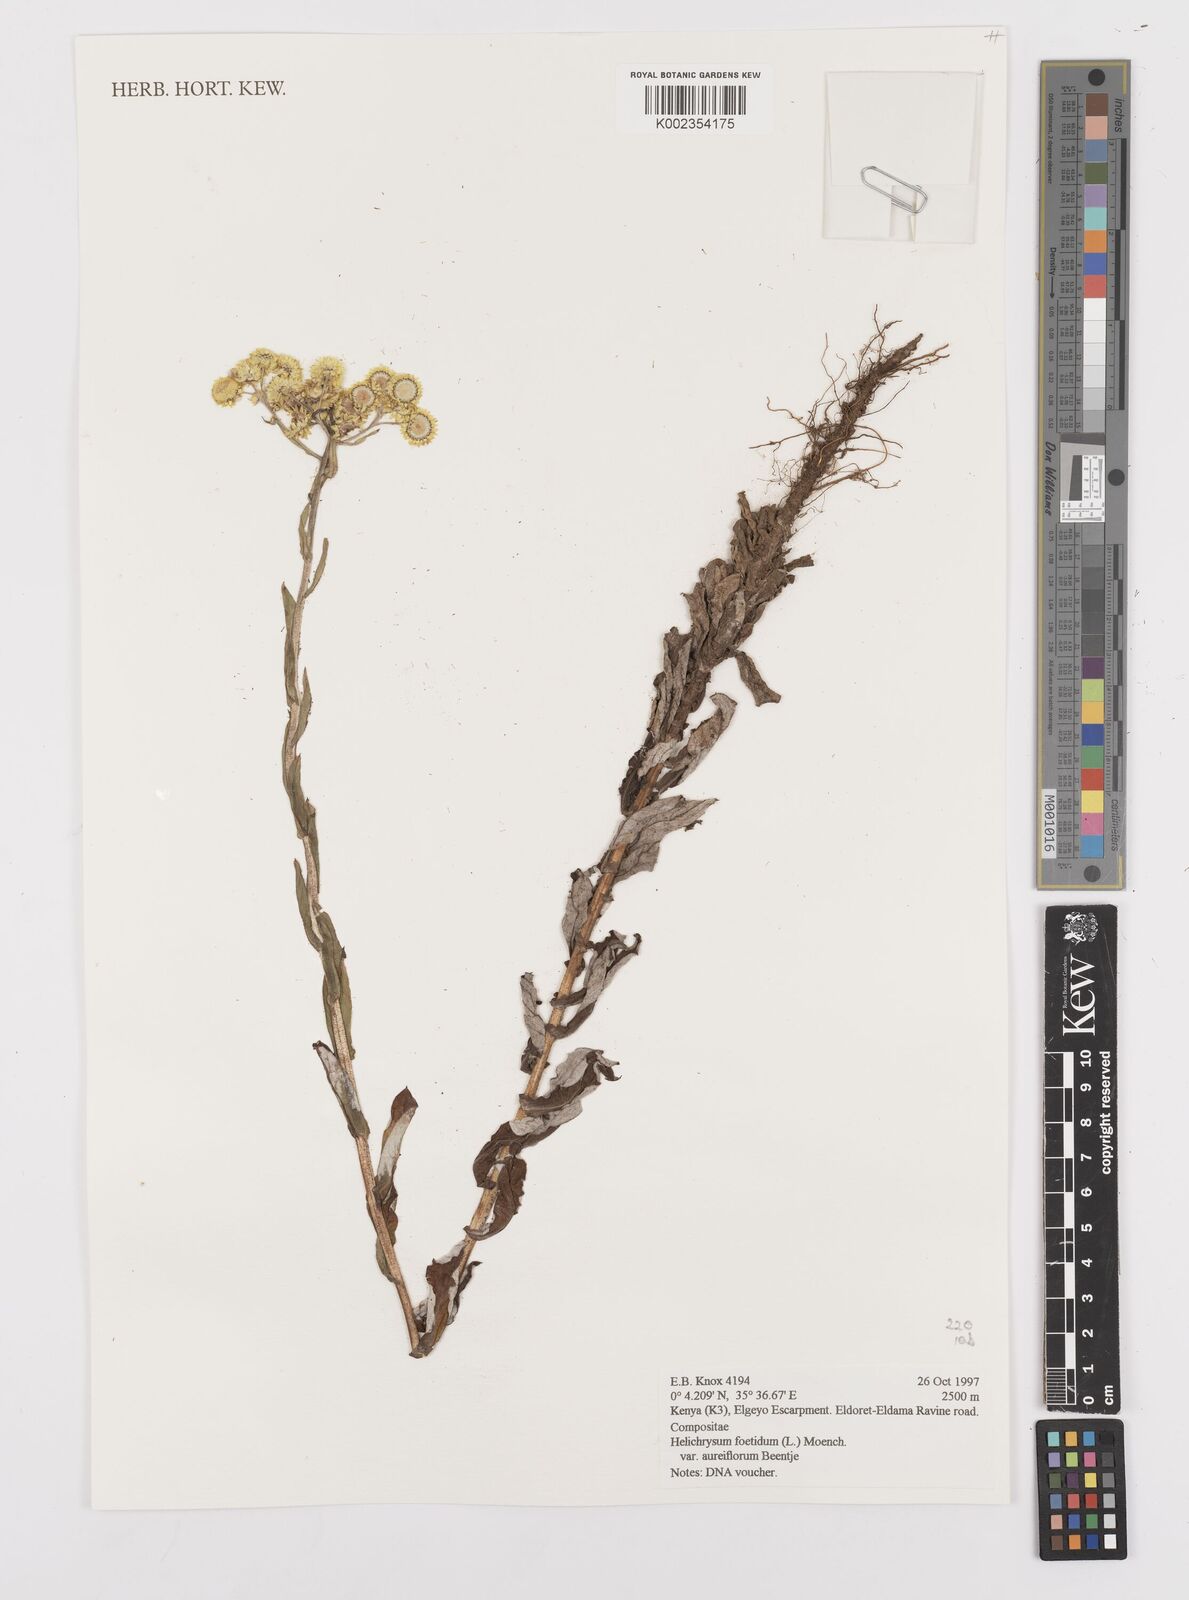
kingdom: Plantae
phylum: Tracheophyta
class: Magnoliopsida
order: Asterales
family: Asteraceae
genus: Helichrysum
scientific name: Helichrysum foetidum
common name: Stinking everlasting
